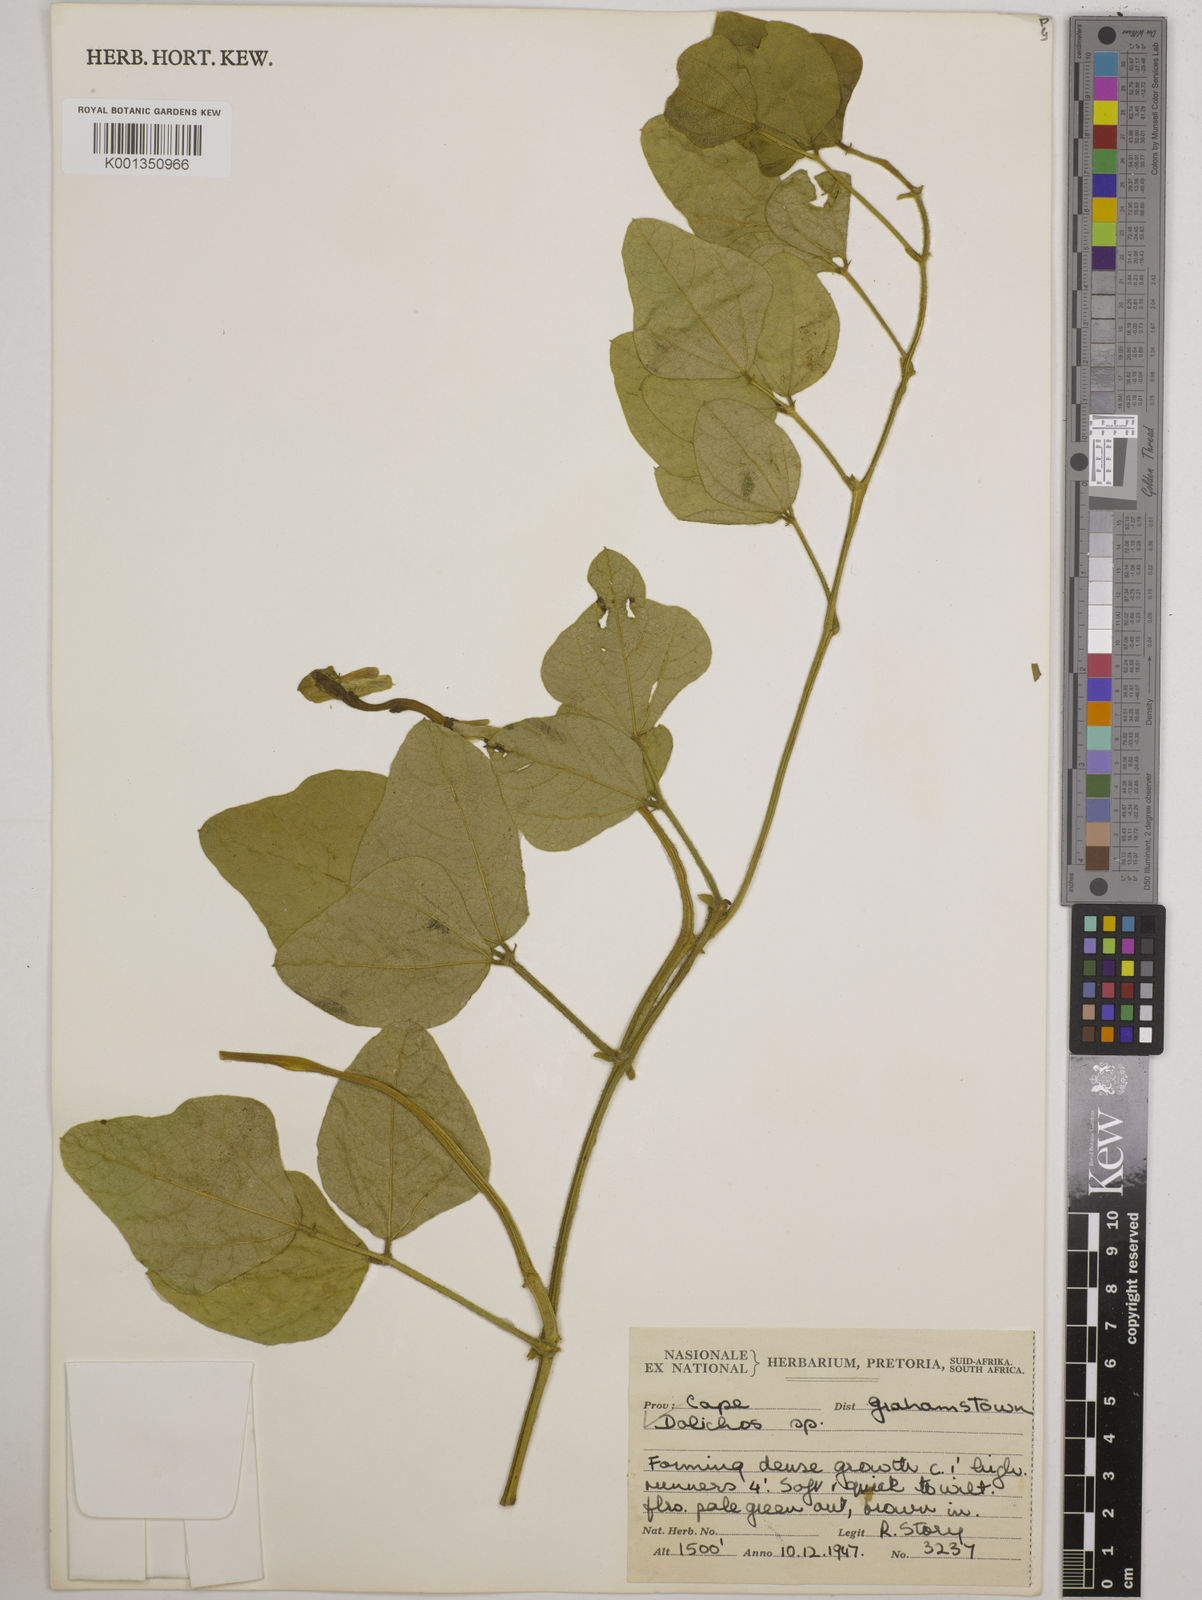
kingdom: Plantae
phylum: Tracheophyta
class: Magnoliopsida
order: Fabales
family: Fabaceae
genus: Dolichos
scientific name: Dolichos
